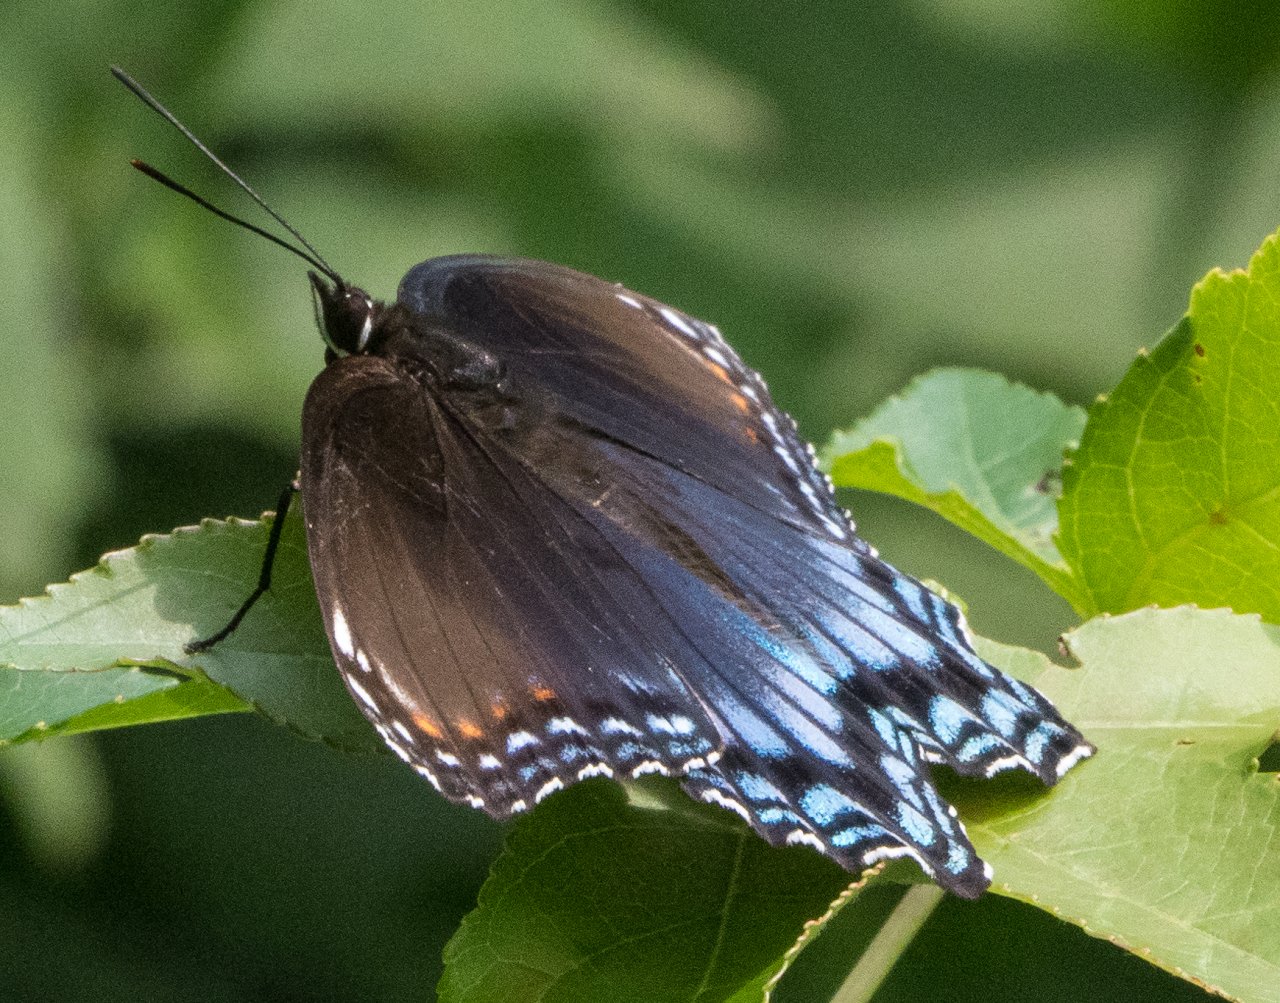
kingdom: Animalia
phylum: Arthropoda
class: Insecta
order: Lepidoptera
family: Nymphalidae
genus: Limenitis
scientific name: Limenitis astyanax
